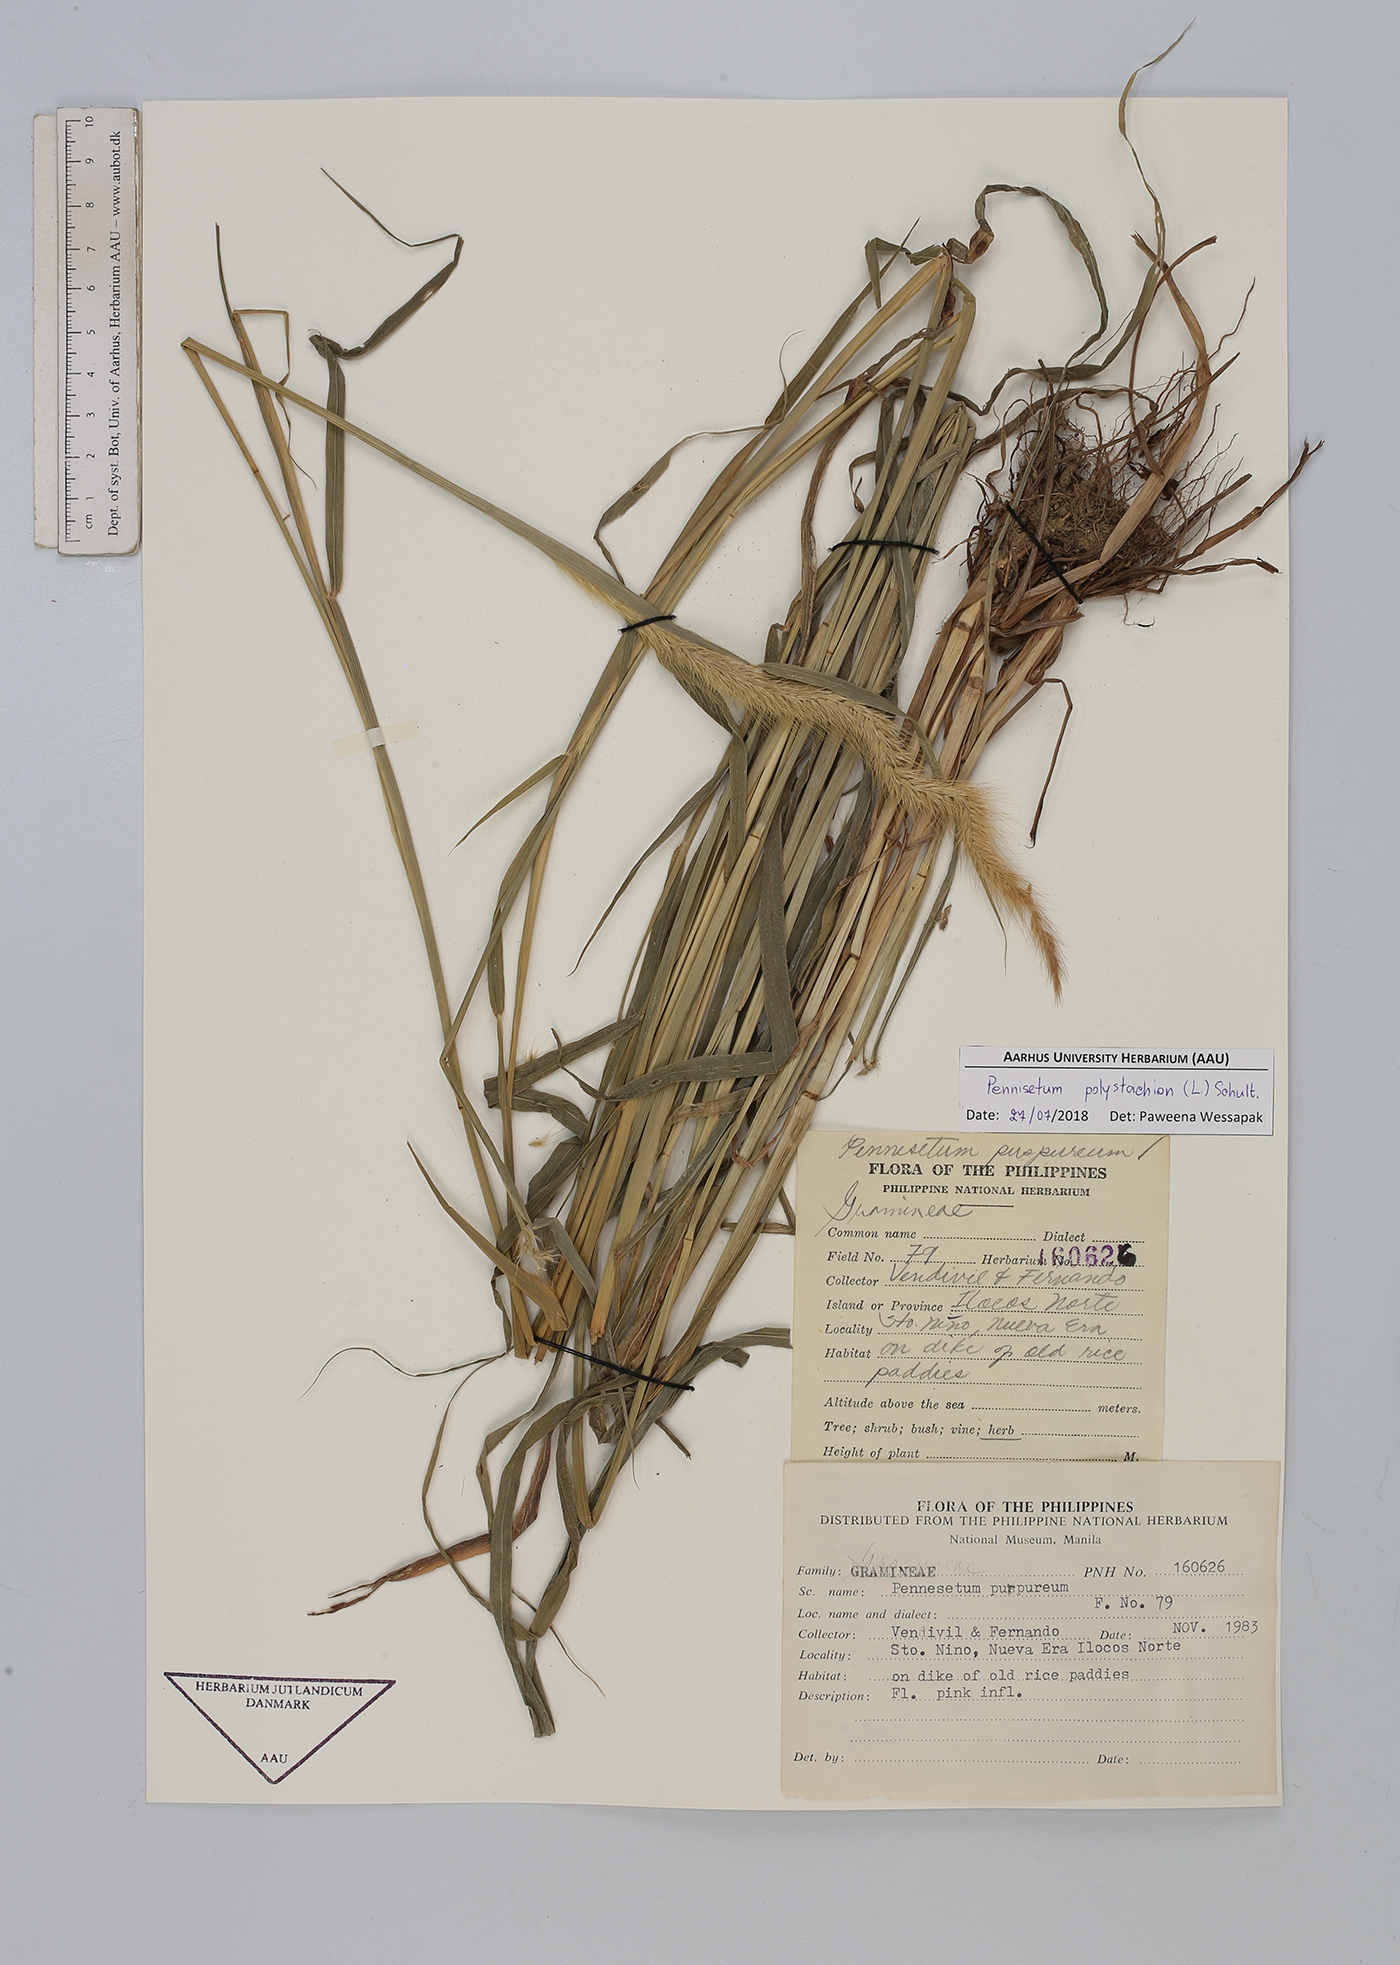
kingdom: Plantae
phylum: Tracheophyta
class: Liliopsida
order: Poales
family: Poaceae
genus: Setaria
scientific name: Setaria parviflora
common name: Knotroot bristle-grass
